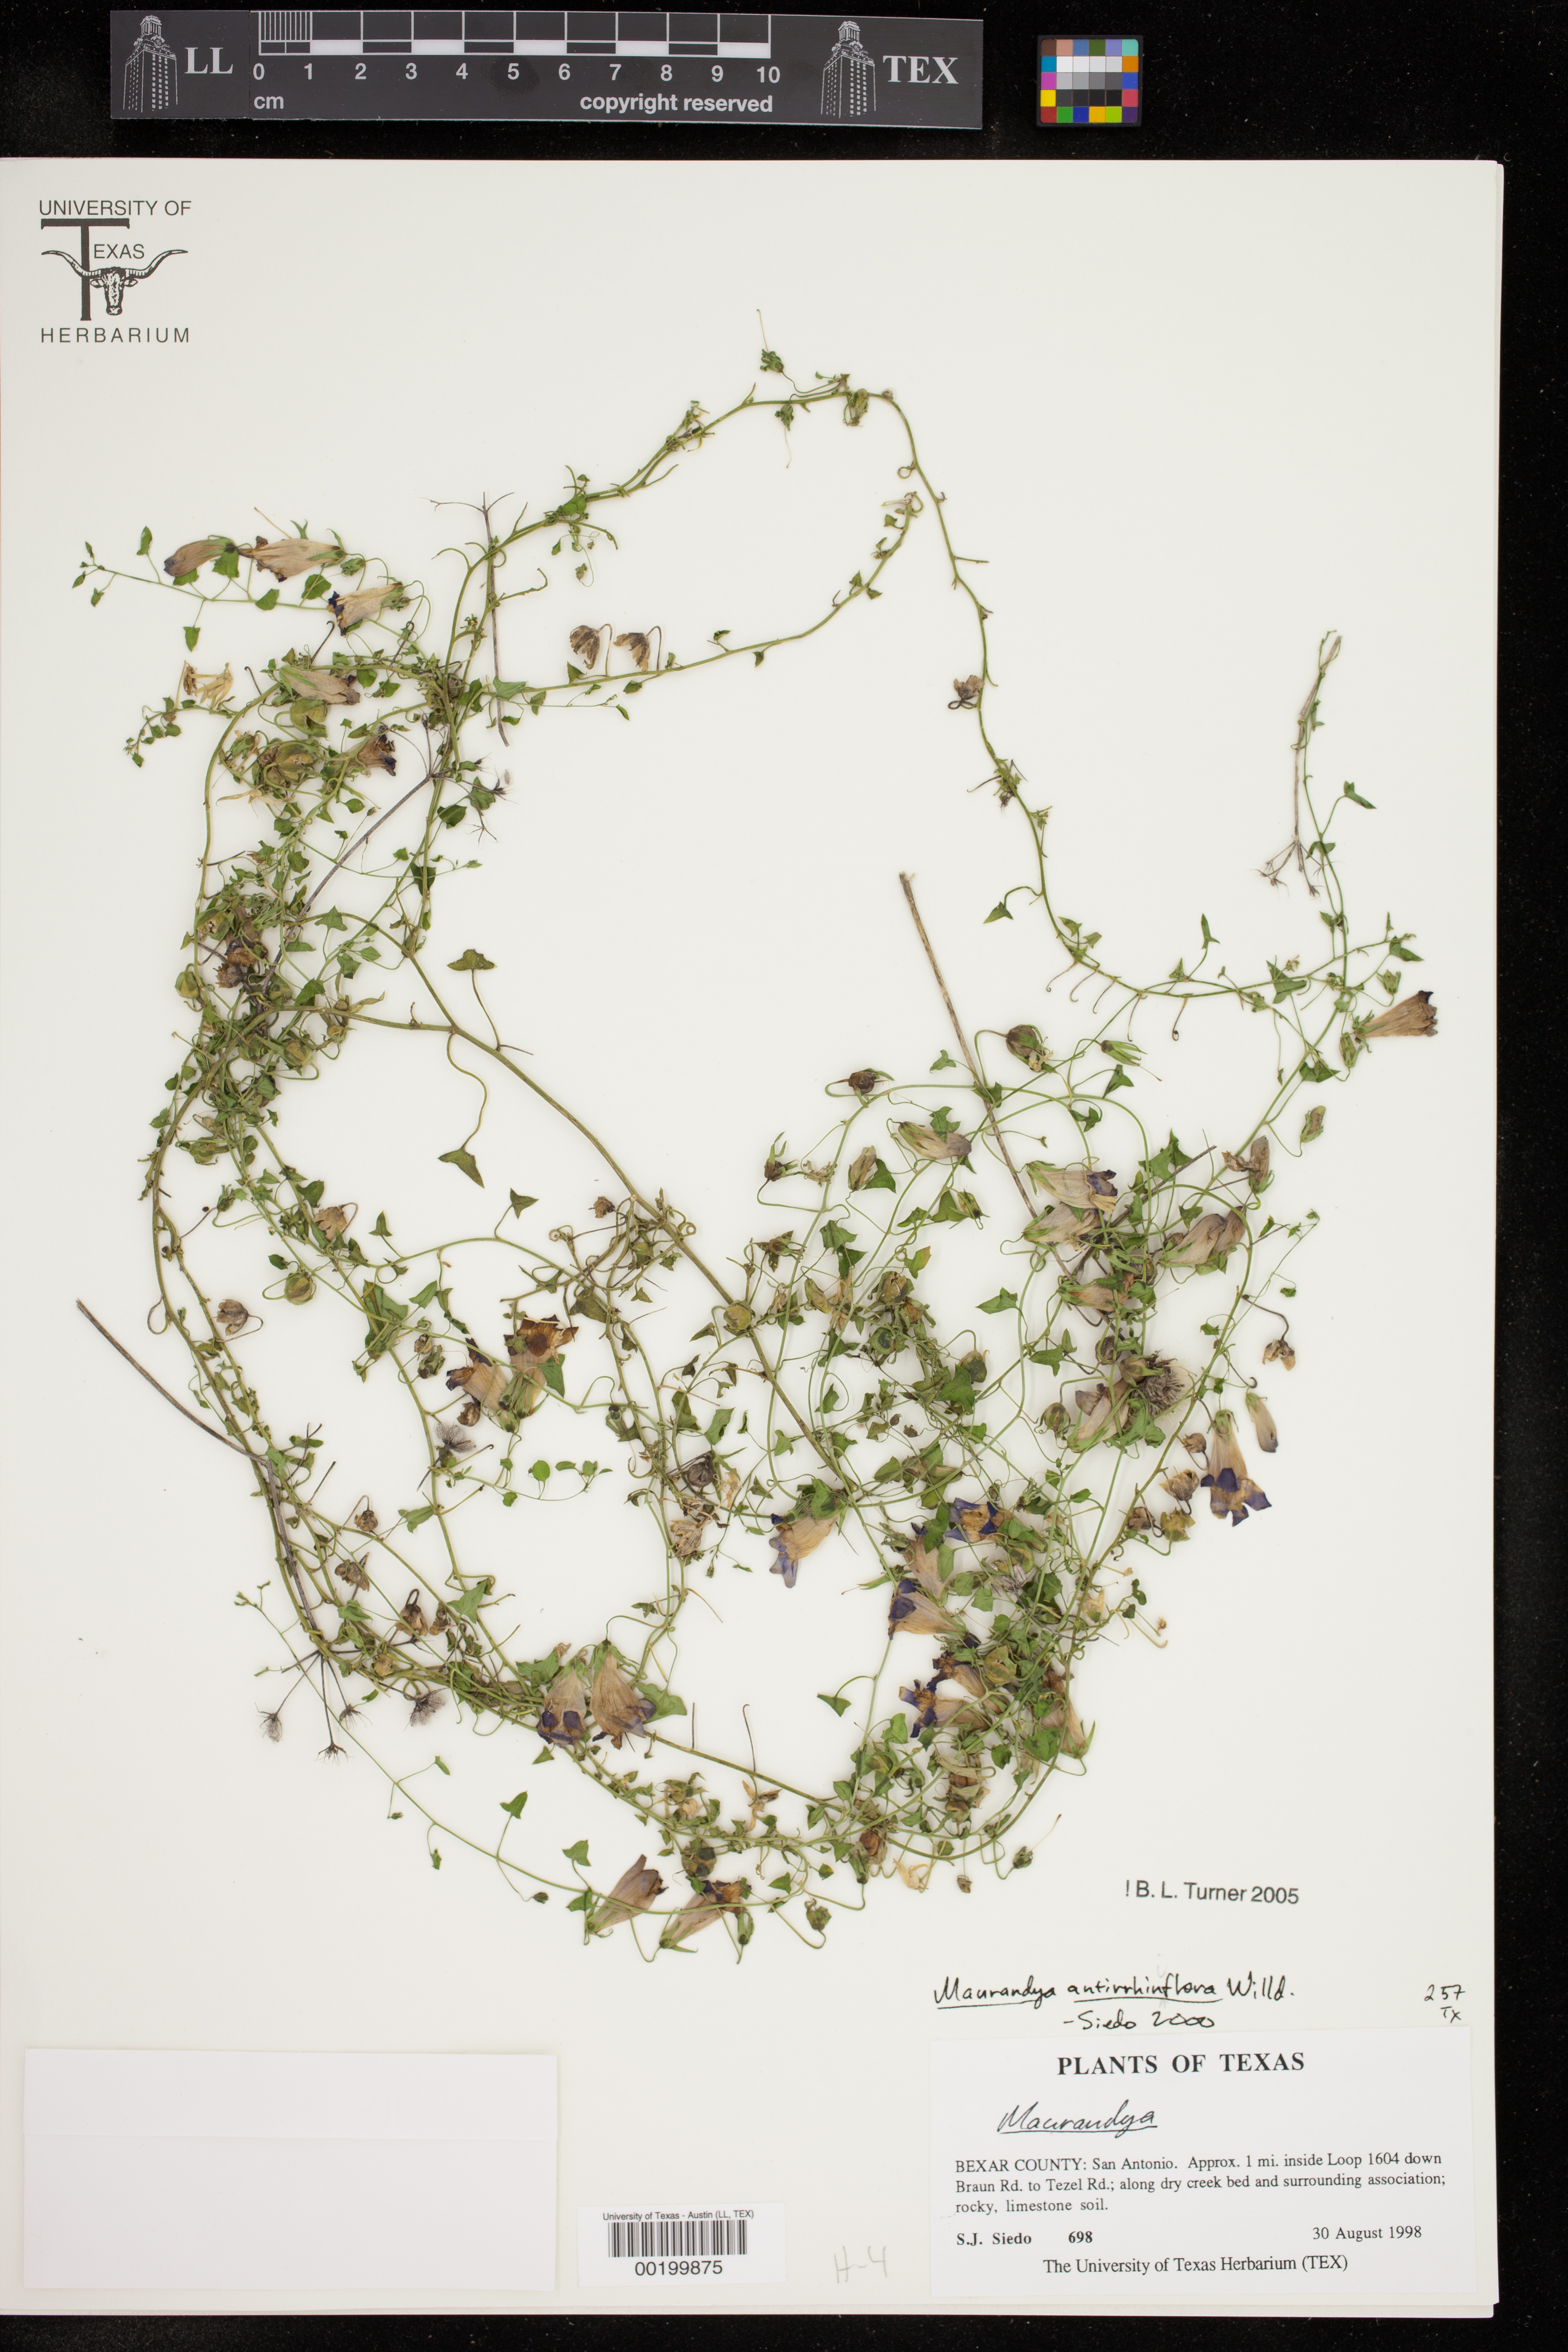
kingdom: Plantae
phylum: Tracheophyta
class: Magnoliopsida
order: Lamiales
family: Plantaginaceae
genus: Maurandella
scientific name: Maurandella antirrhiniflora
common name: Violet twining-snapdragon
